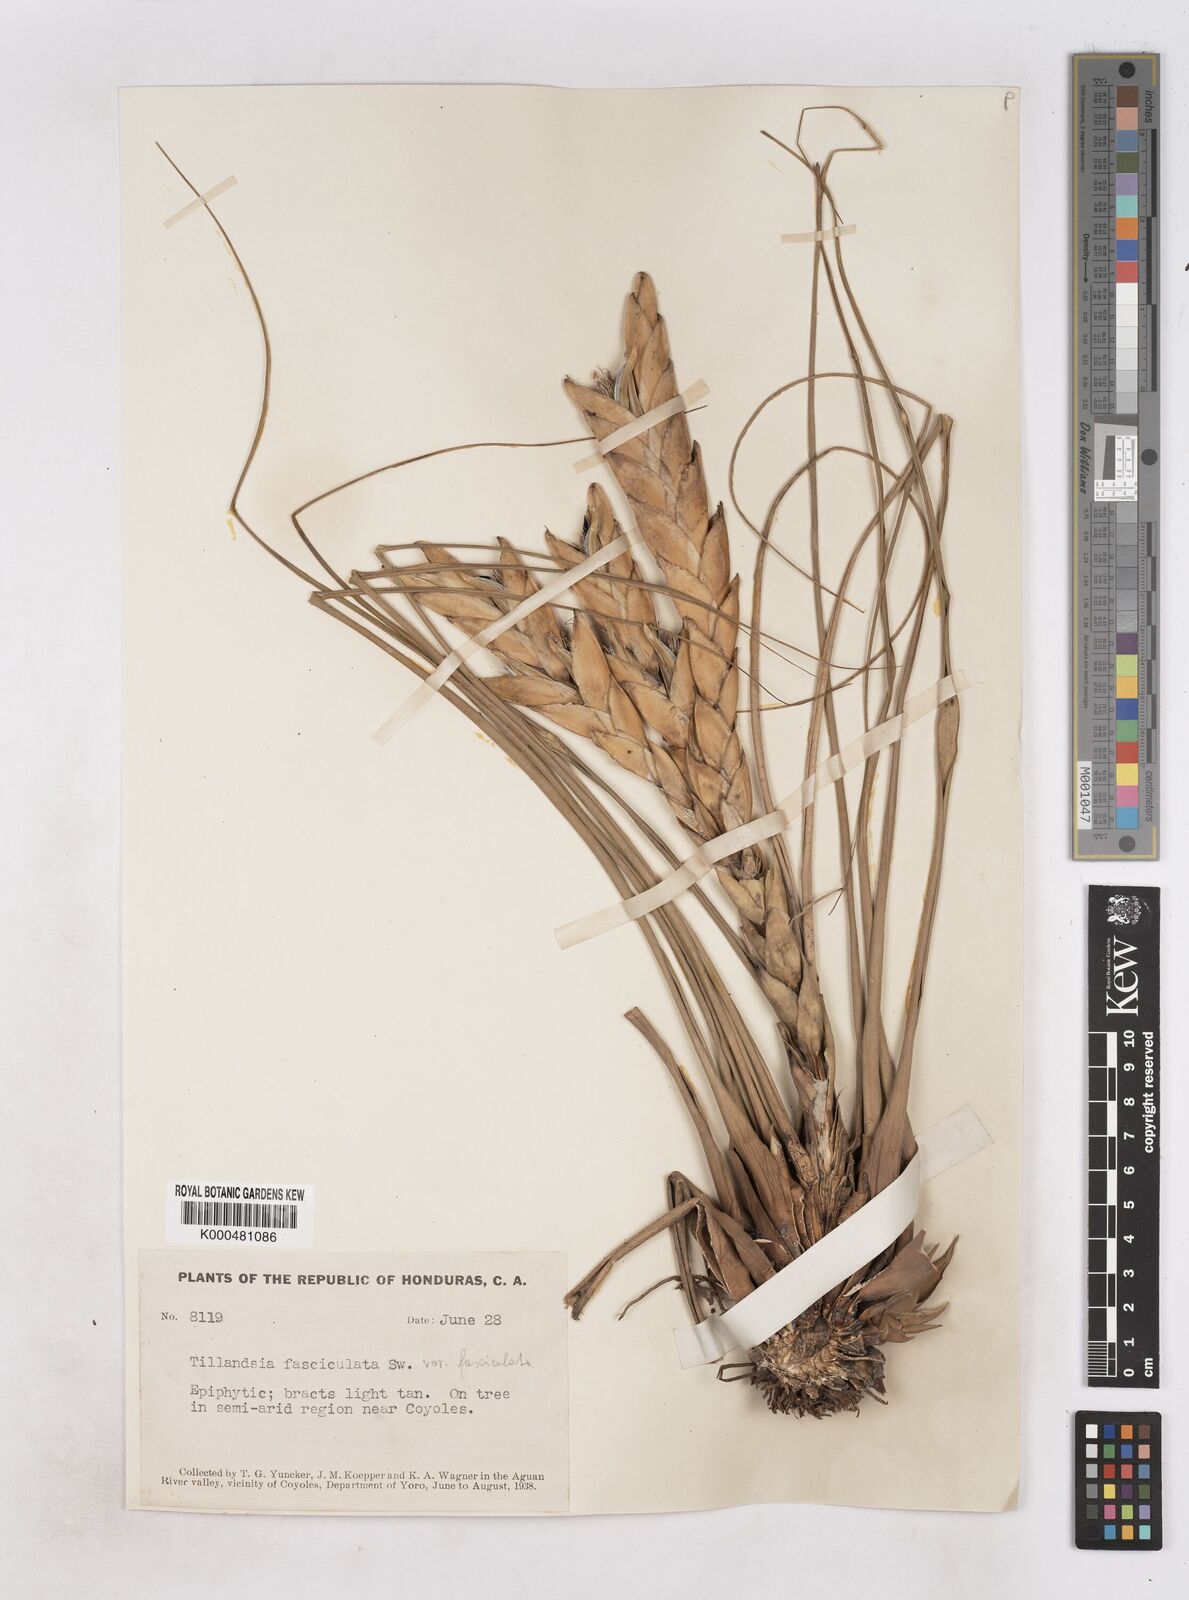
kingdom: Plantae
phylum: Tracheophyta
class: Liliopsida
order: Poales
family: Bromeliaceae
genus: Tillandsia
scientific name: Tillandsia fasciculata
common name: Giant airplant
